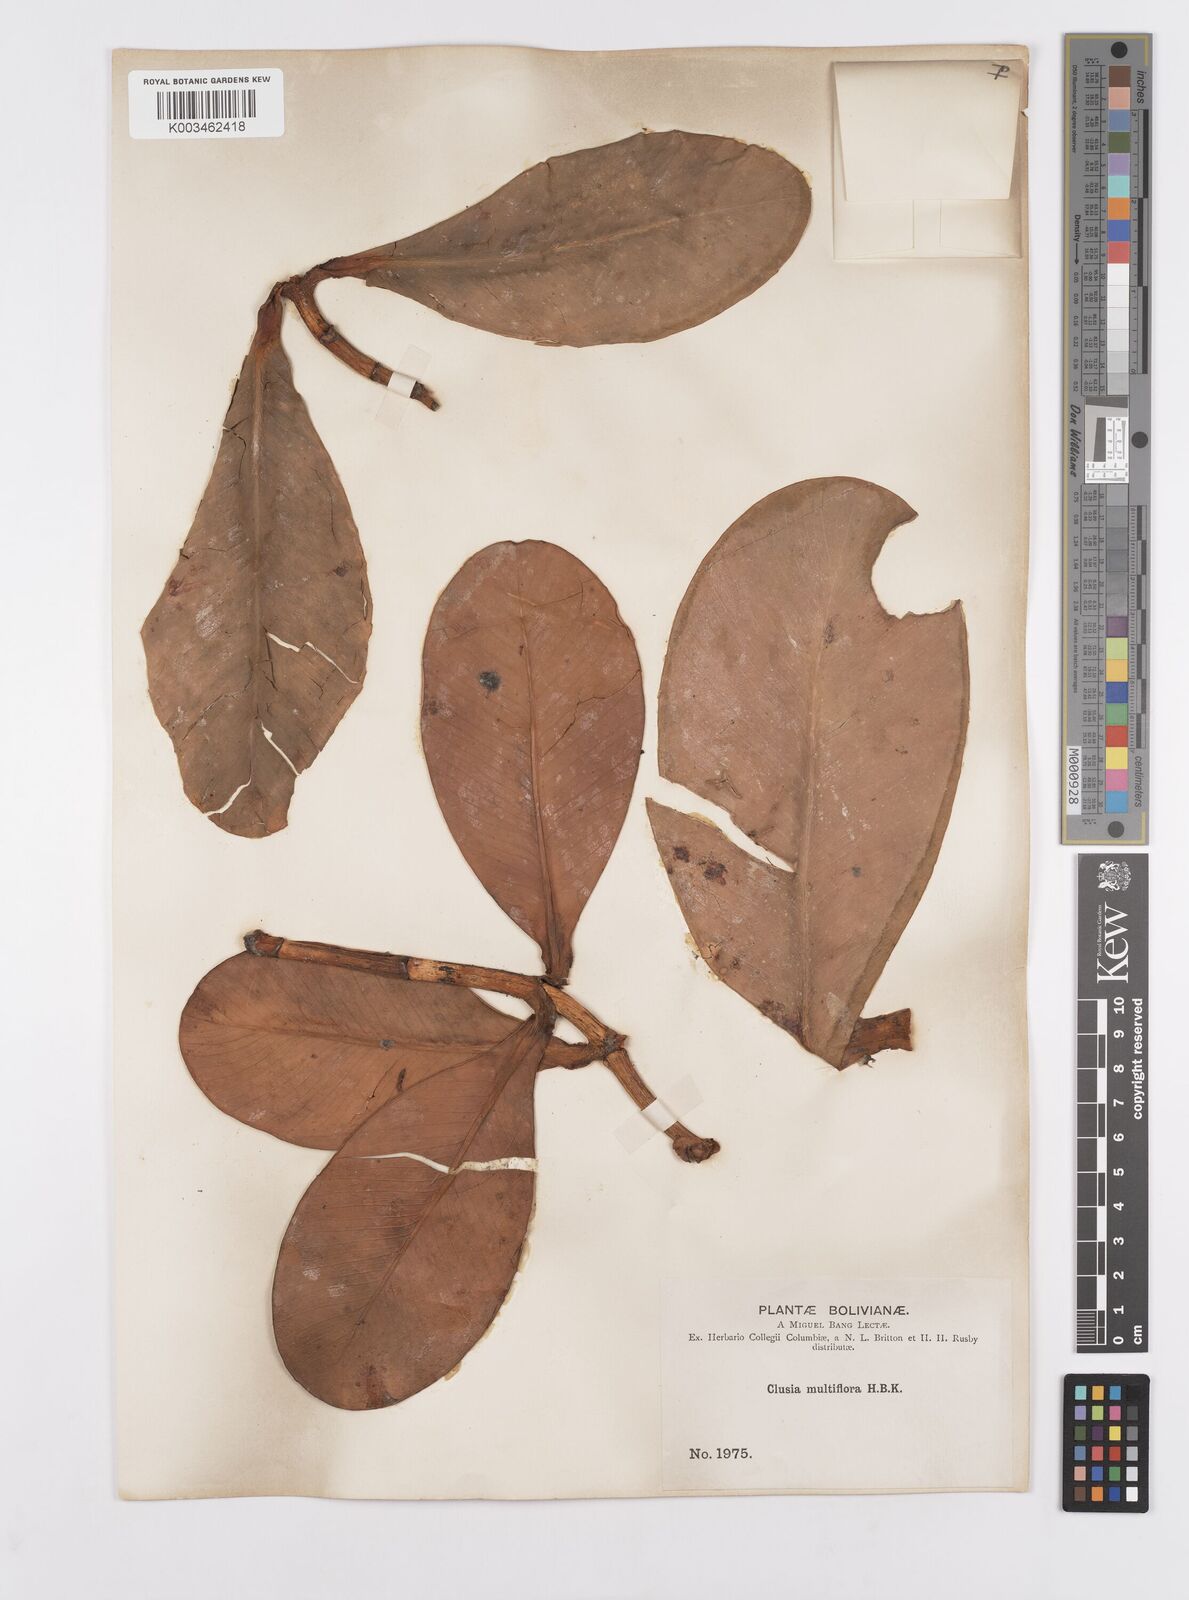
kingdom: Plantae
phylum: Tracheophyta
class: Magnoliopsida
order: Malpighiales
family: Clusiaceae
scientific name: Clusiaceae
